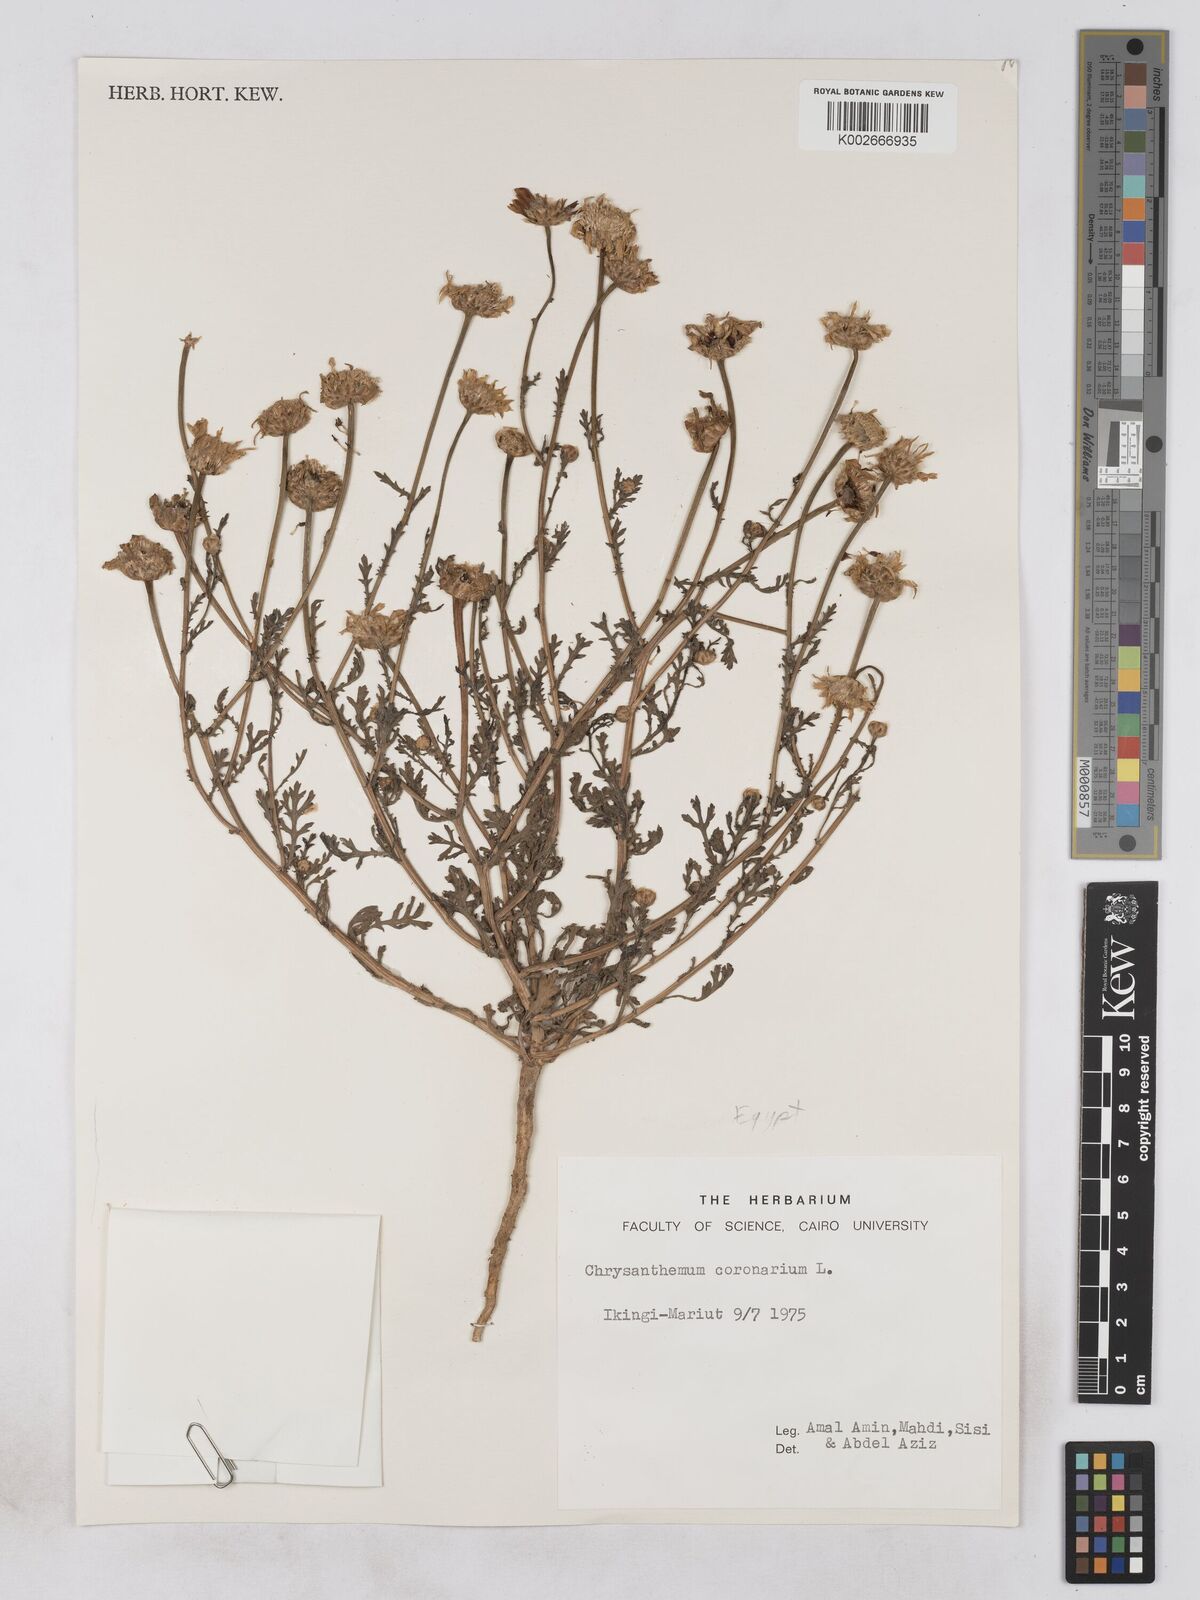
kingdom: Plantae
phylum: Tracheophyta
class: Magnoliopsida
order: Asterales
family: Asteraceae
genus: Glebionis
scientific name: Glebionis coronaria
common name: Crowndaisy
